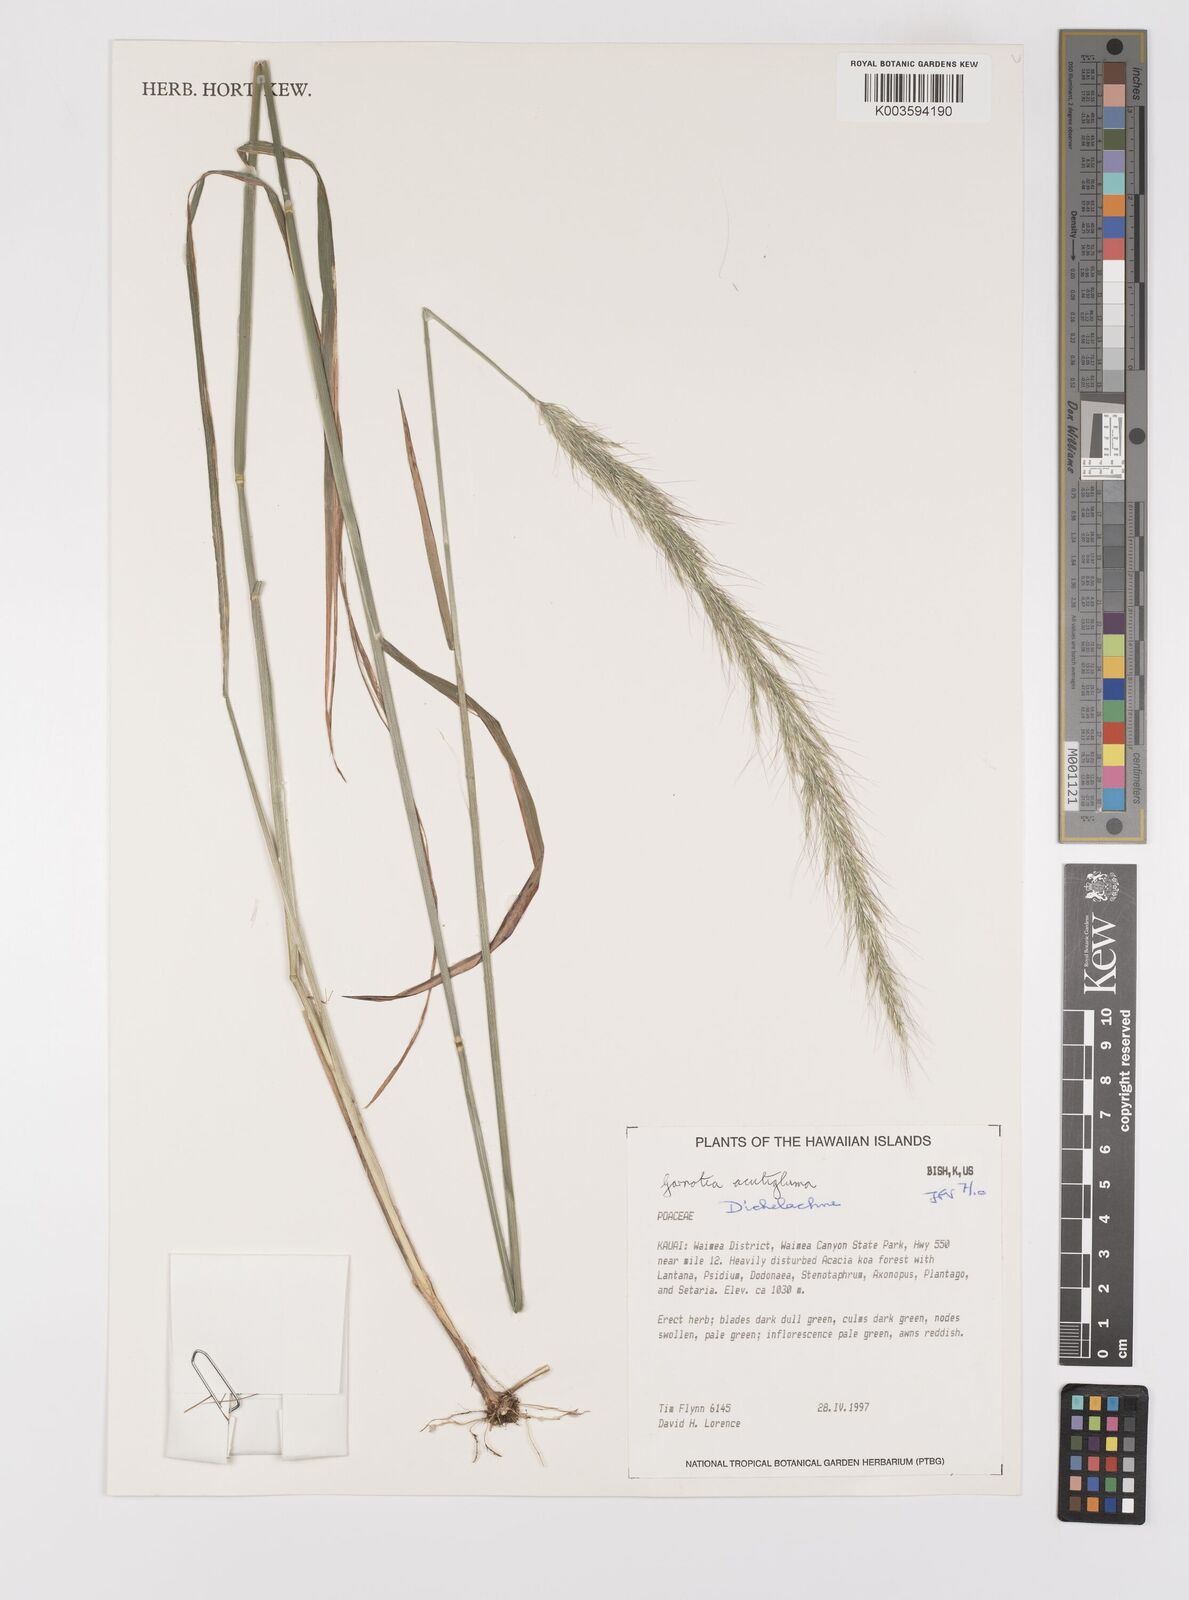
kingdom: Plantae
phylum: Tracheophyta
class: Liliopsida
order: Poales
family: Poaceae
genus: Dichelachne
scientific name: Dichelachne crinita
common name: Clovenfoot plumegrass
